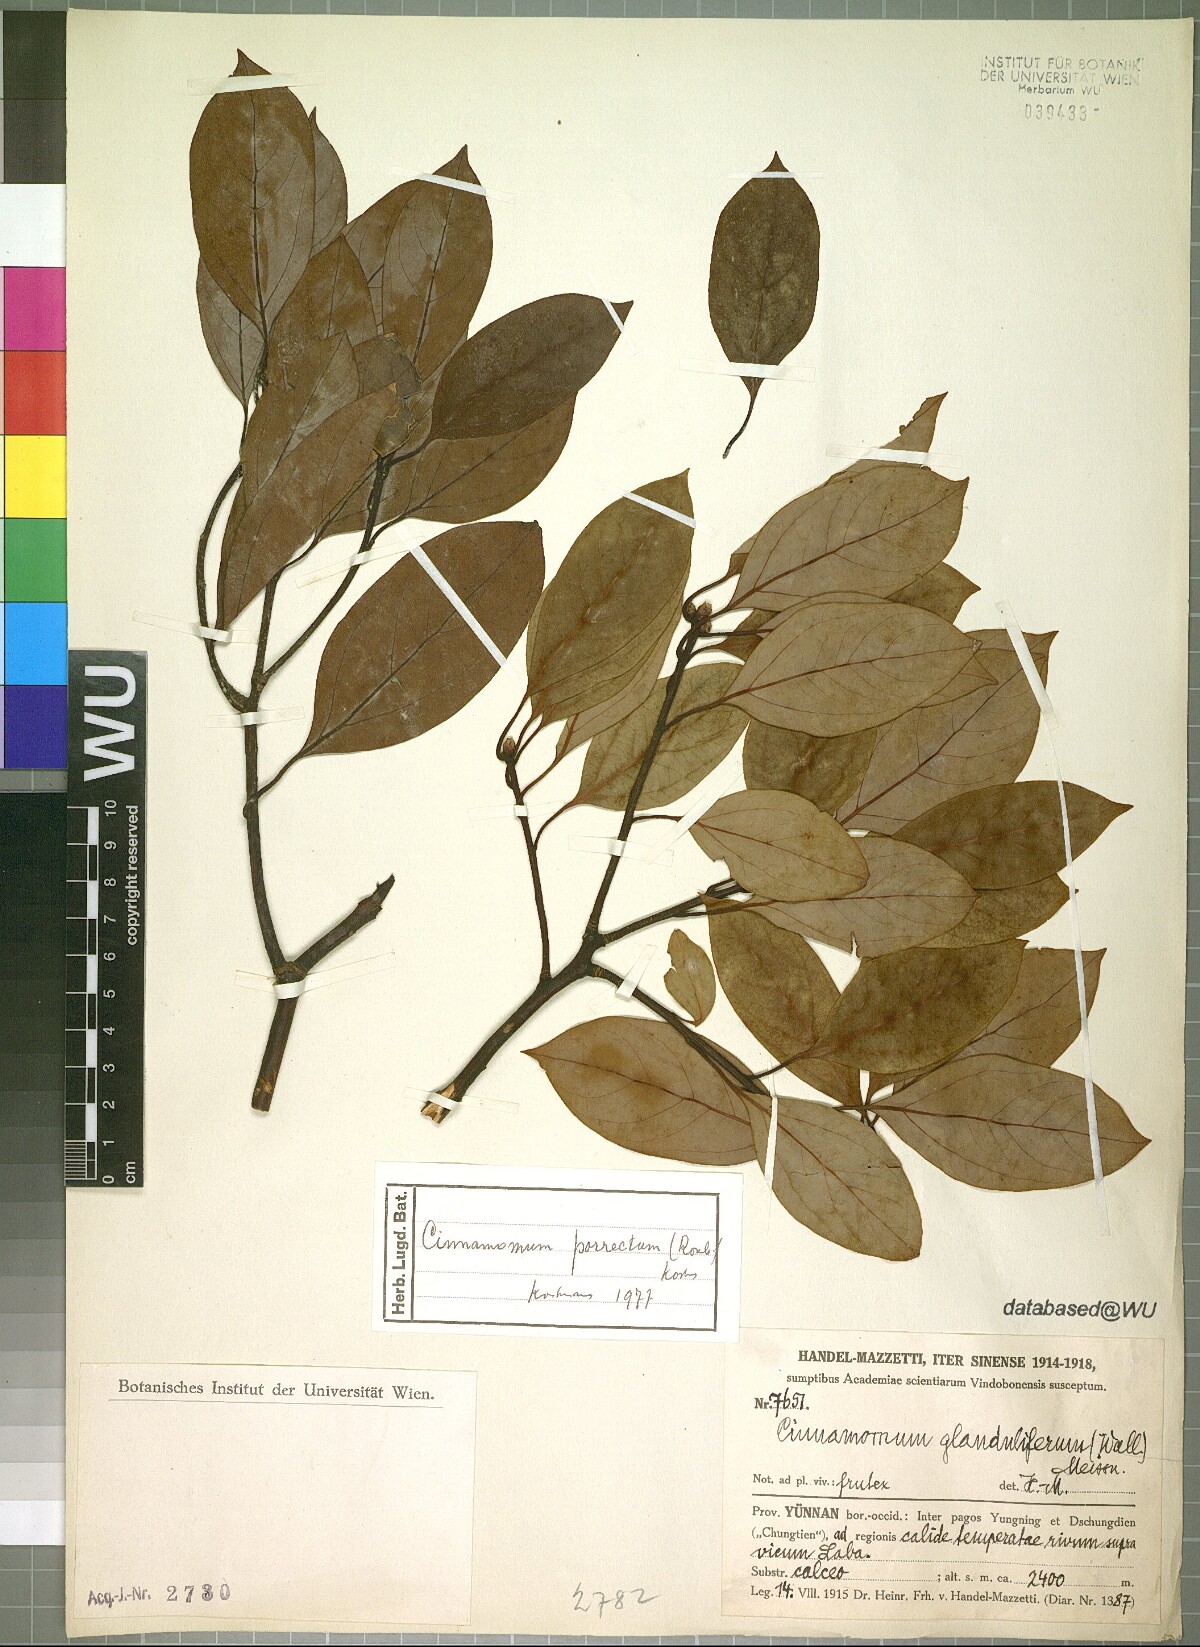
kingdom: Plantae
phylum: Tracheophyta
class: Magnoliopsida
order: Laurales
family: Lauraceae
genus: Cinnamomum
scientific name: Cinnamomum parthenoxylon
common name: Martaban camphor wood
